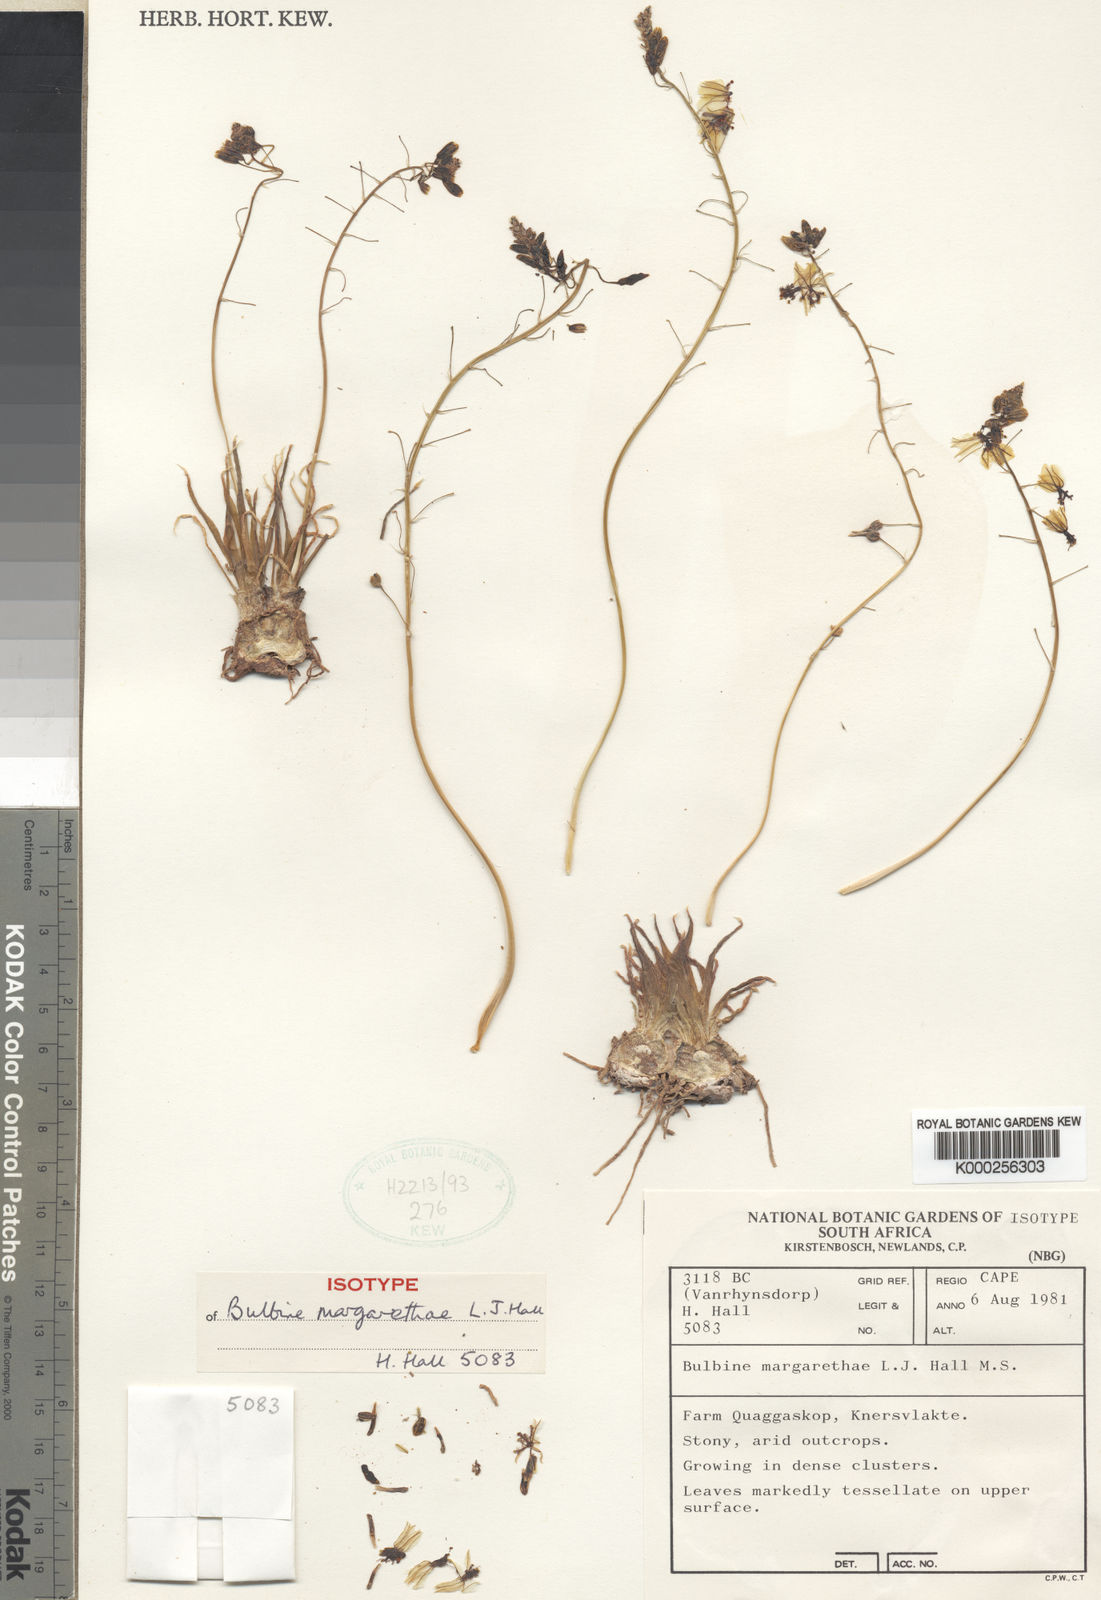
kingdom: Plantae
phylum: Tracheophyta
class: Liliopsida
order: Asparagales
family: Asphodelaceae
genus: Bulbine
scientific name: Bulbine margarethae
